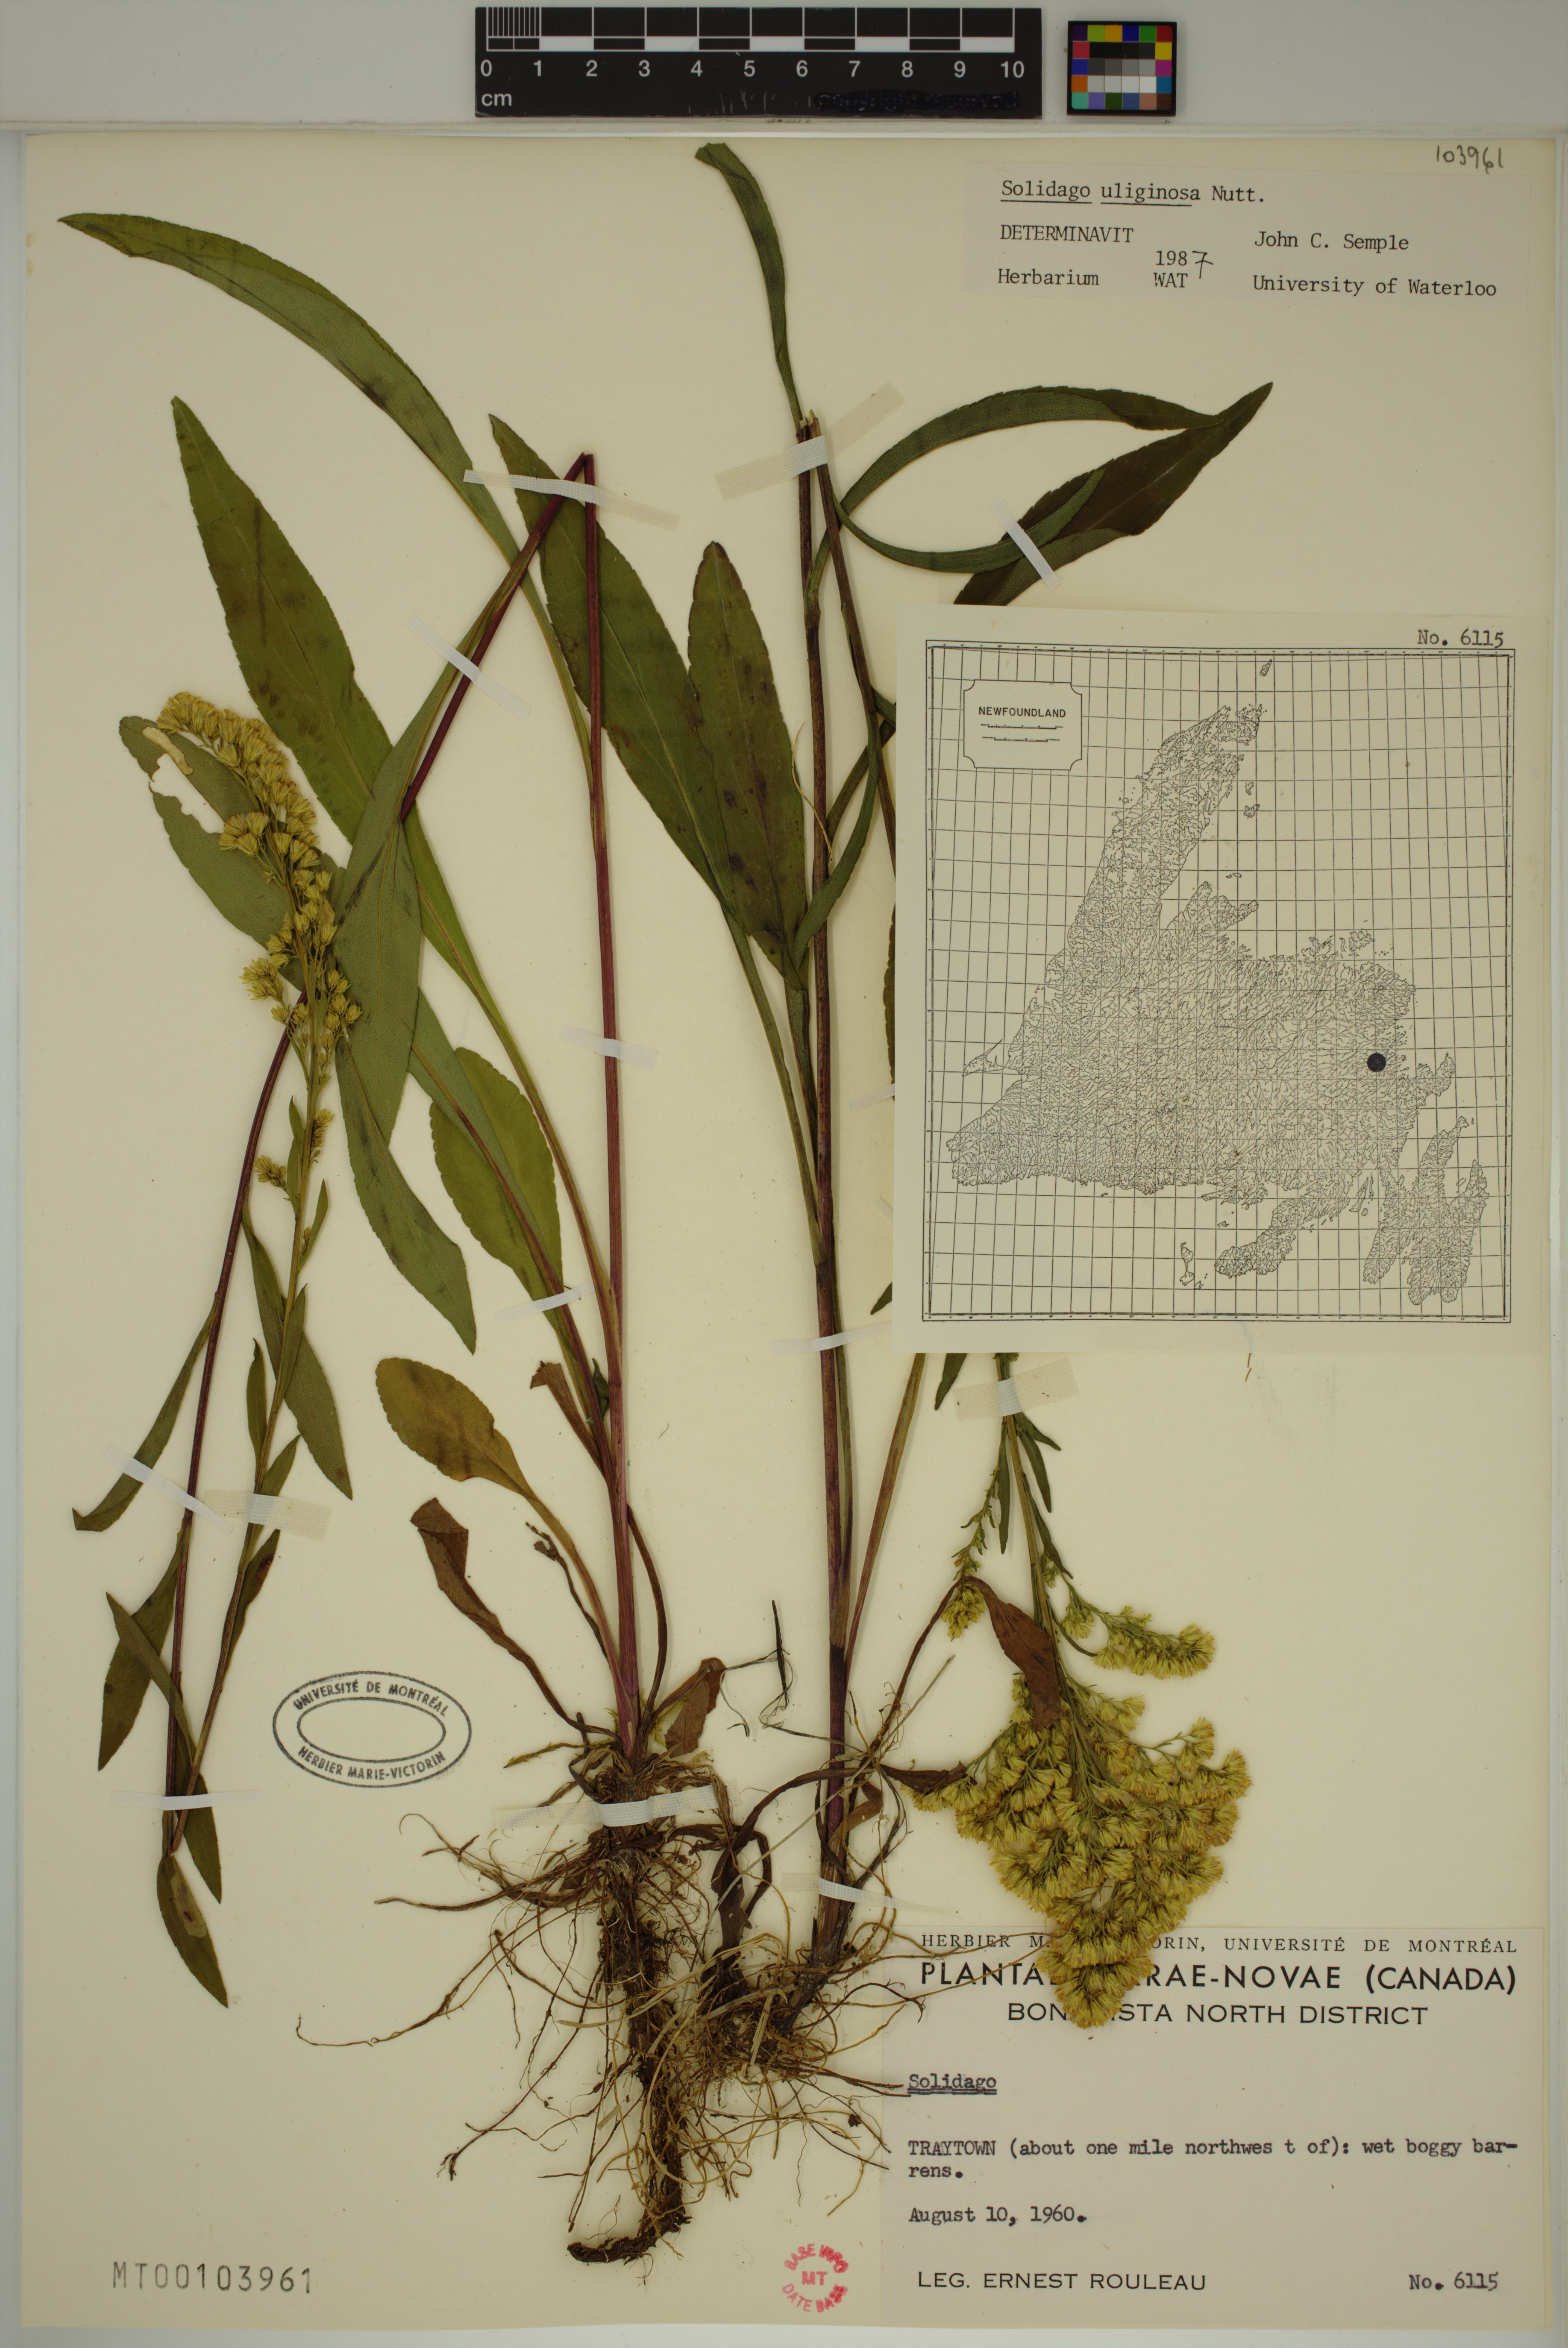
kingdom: Plantae
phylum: Tracheophyta
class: Magnoliopsida
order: Asterales
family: Asteraceae
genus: Solidago
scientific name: Solidago uliginosa
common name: Bog goldenrod
